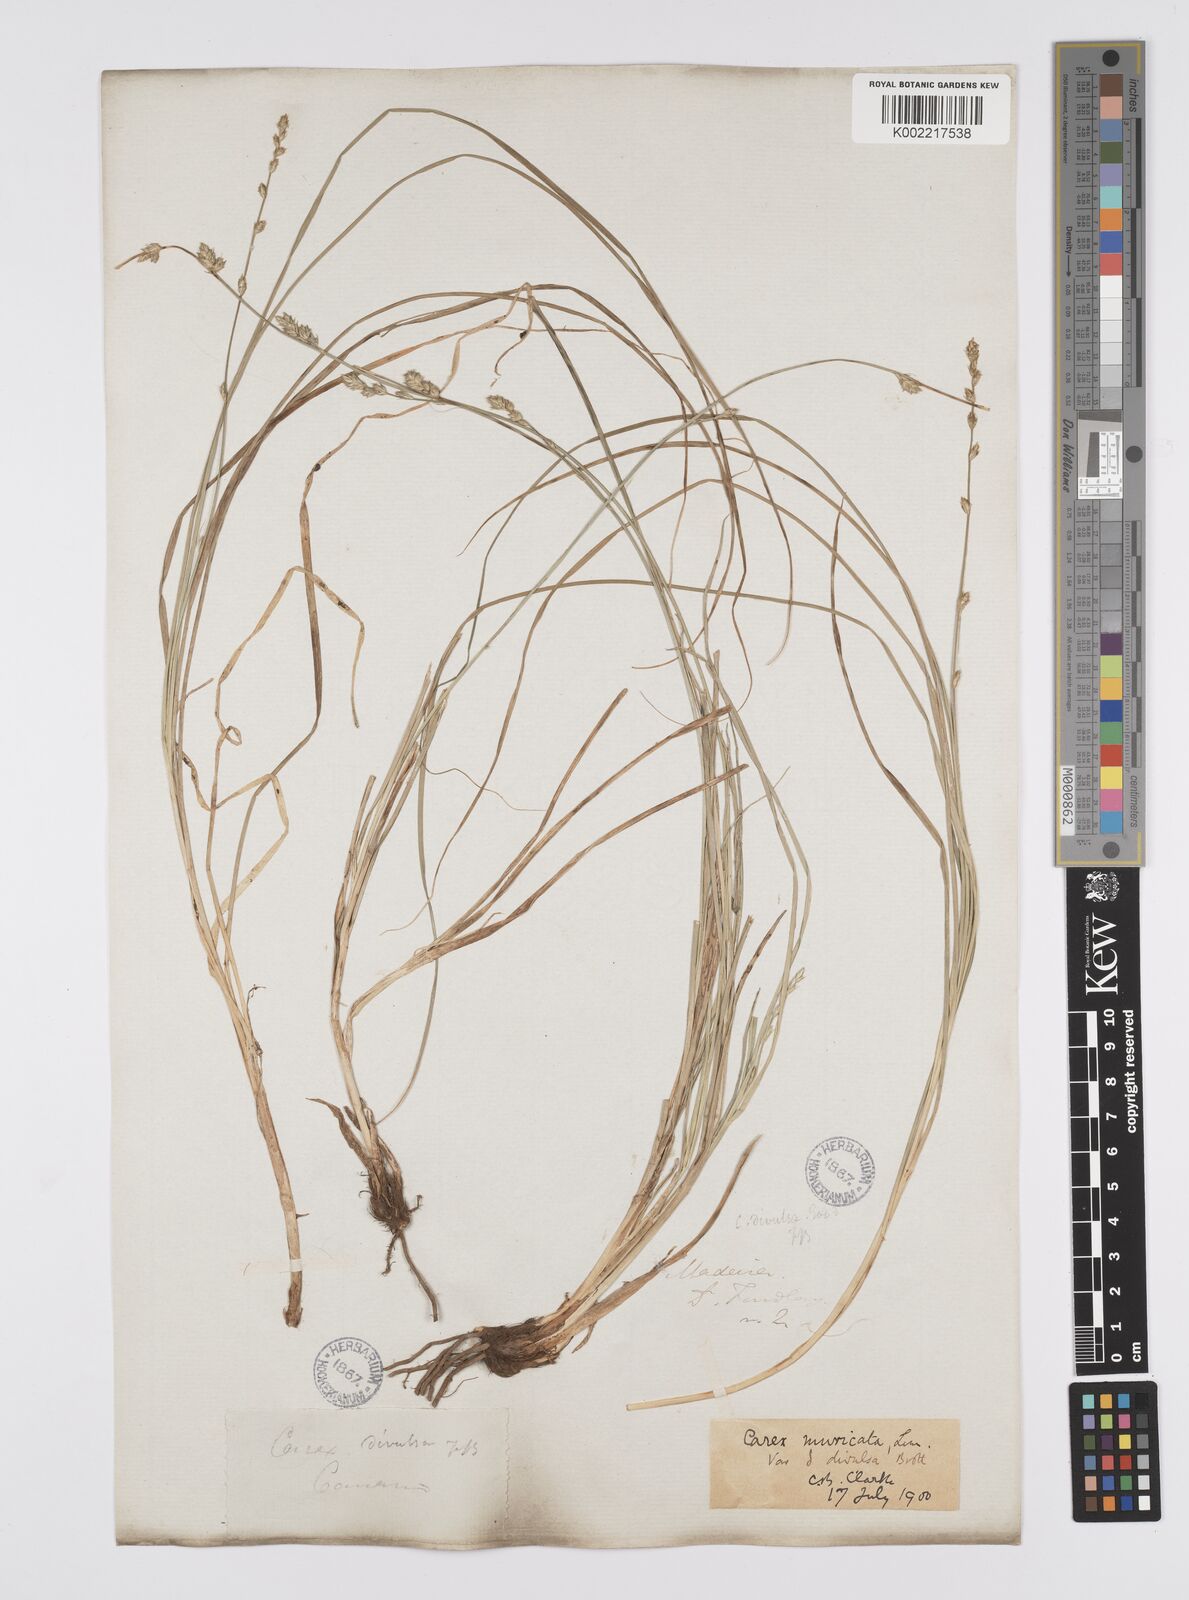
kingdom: Plantae
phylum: Tracheophyta
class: Liliopsida
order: Poales
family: Cyperaceae
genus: Carex
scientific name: Carex divulsa
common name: Grassland sedge
